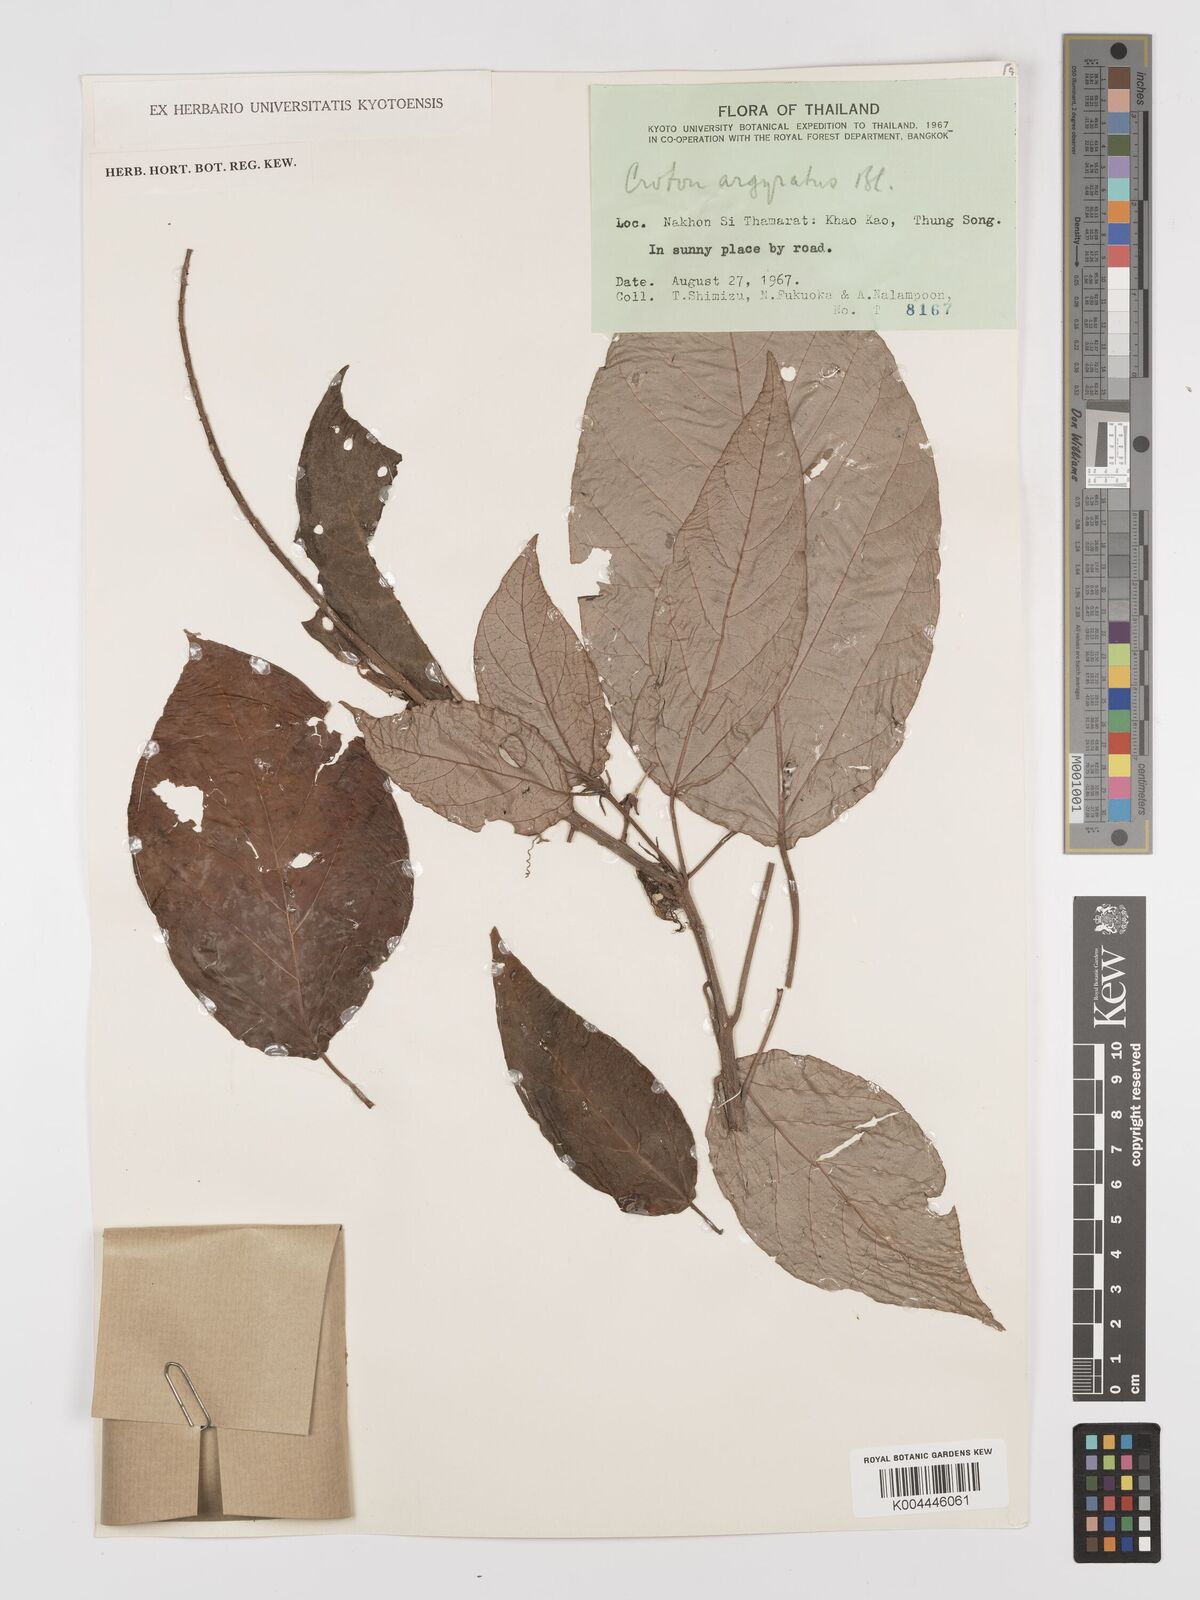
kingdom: Plantae
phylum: Tracheophyta
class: Magnoliopsida
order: Malpighiales
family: Euphorbiaceae
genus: Croton
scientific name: Croton argyratus
